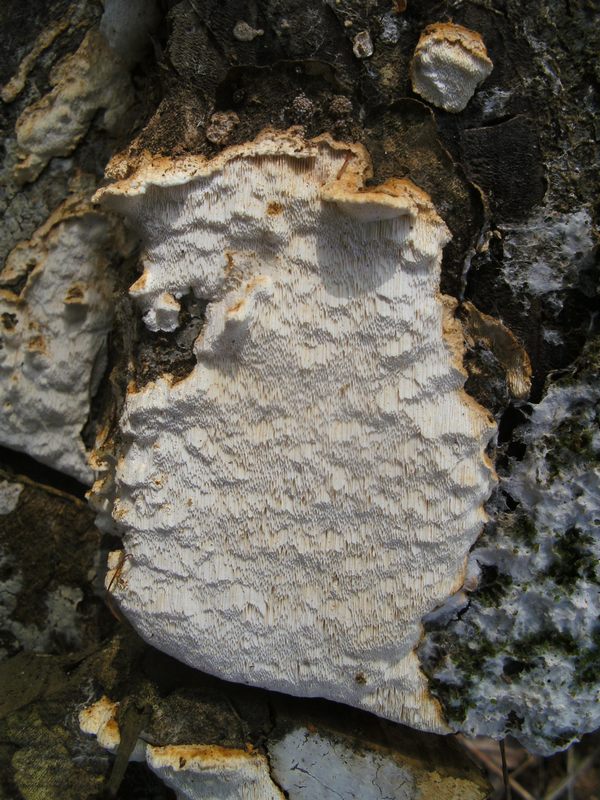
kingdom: Fungi
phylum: Basidiomycota
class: Agaricomycetes
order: Polyporales
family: Fomitopsidaceae
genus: Neoantrodia
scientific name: Neoantrodia serialis
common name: række-sejporesvamp
